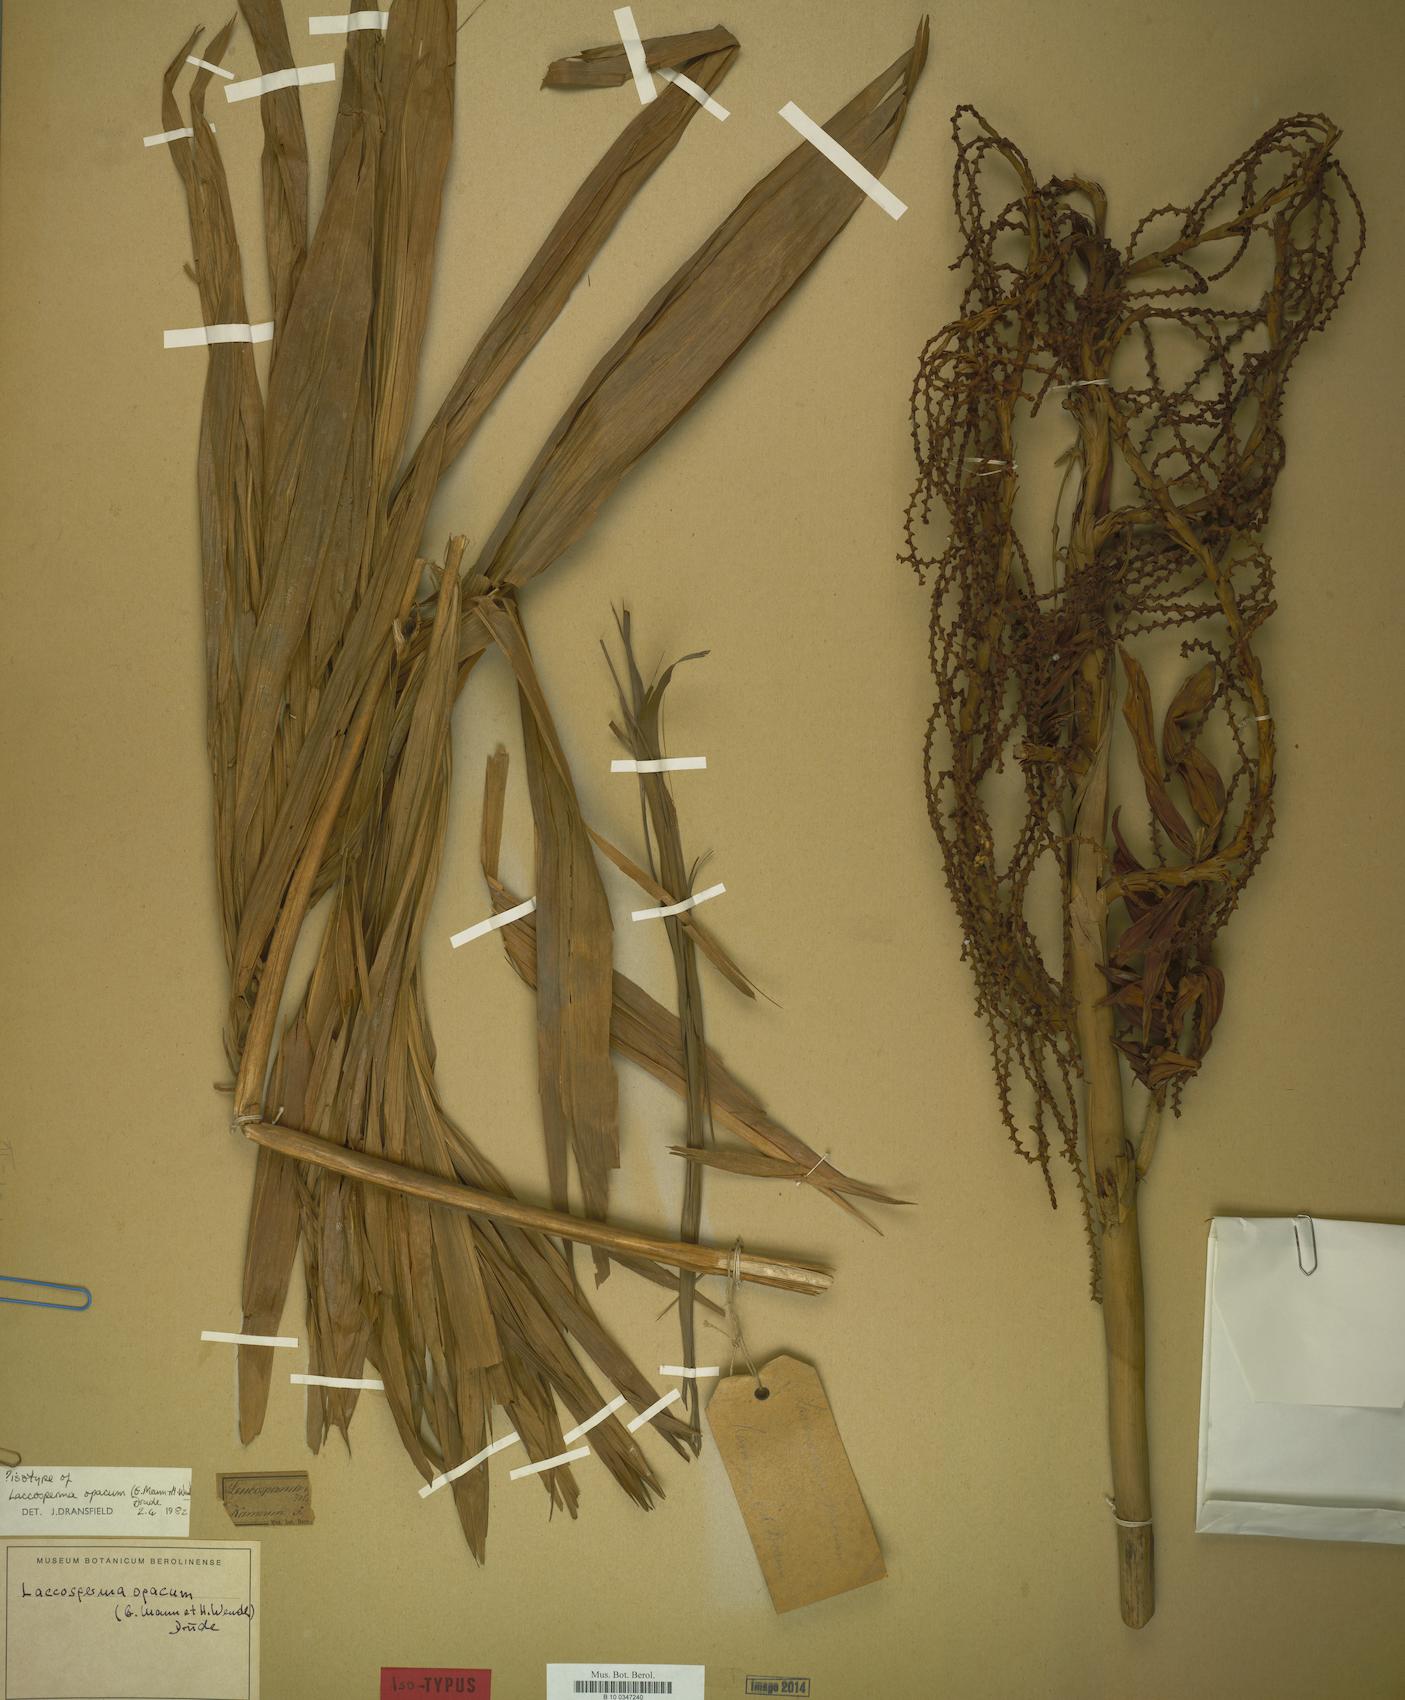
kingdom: Plantae
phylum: Tracheophyta
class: Liliopsida
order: Arecales
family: Arecaceae
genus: Laccosperma
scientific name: Laccosperma opacum
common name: Rattan
